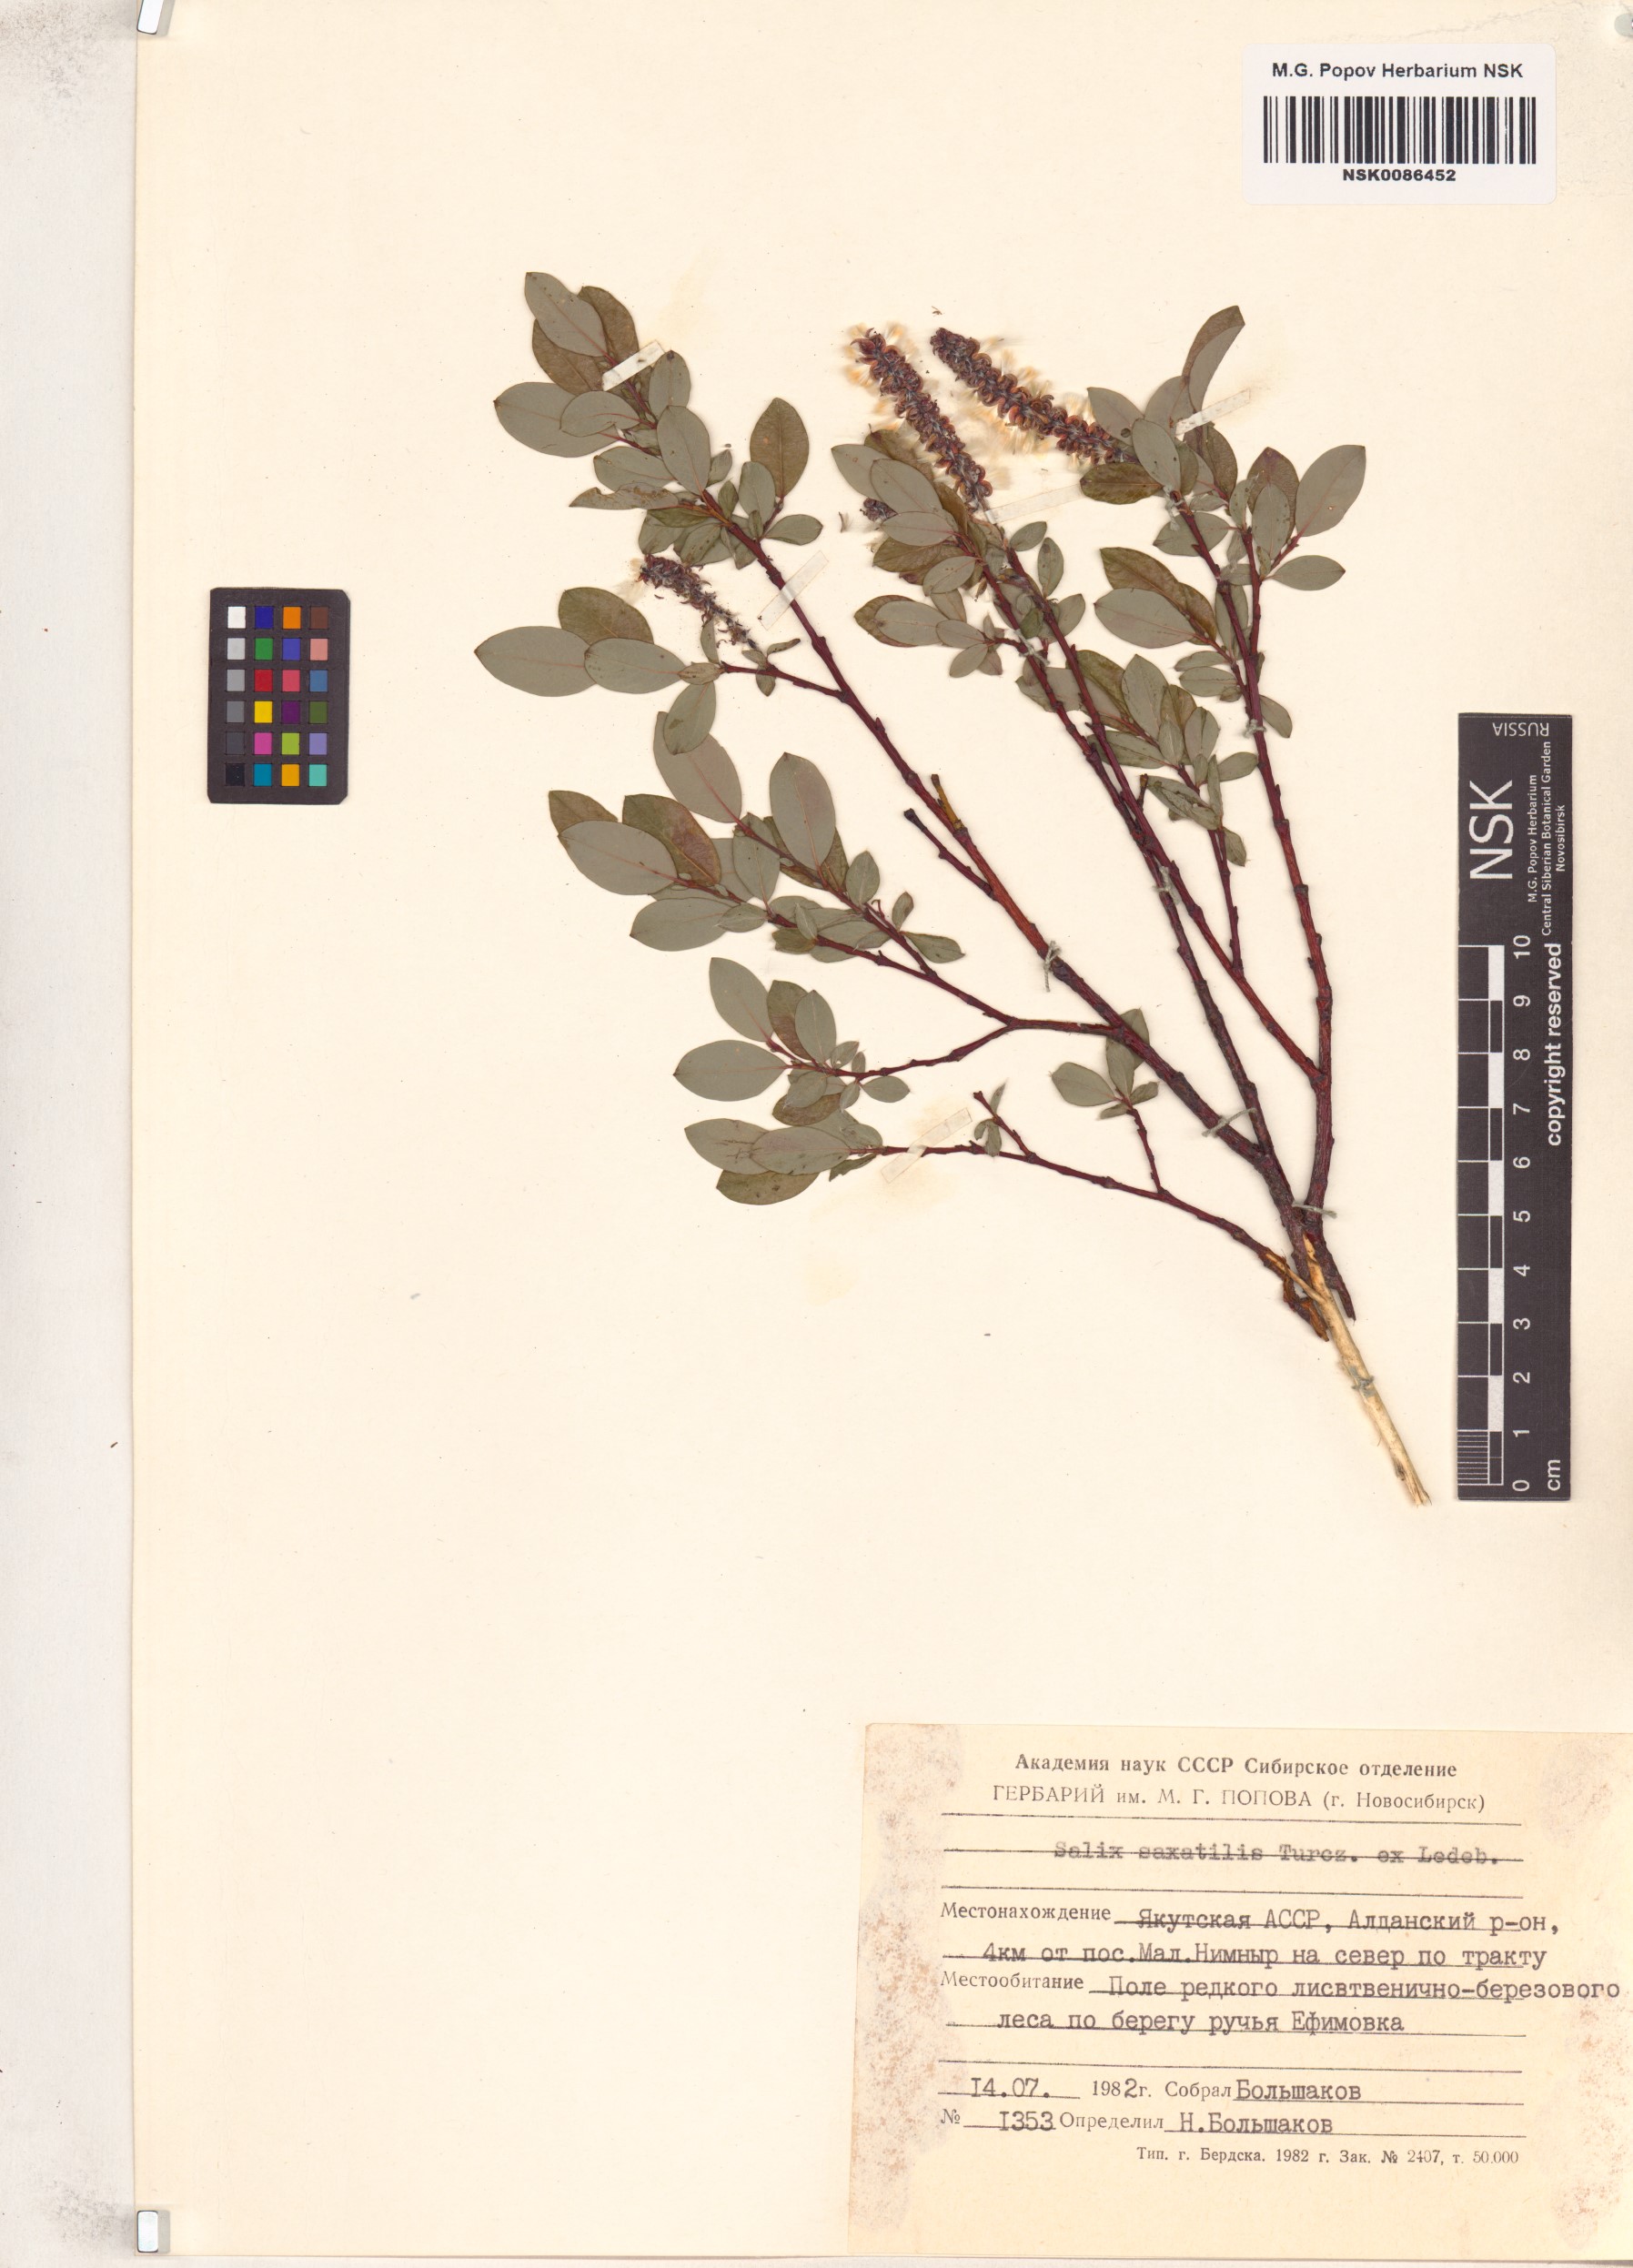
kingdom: Plantae
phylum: Tracheophyta
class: Magnoliopsida
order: Malpighiales
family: Salicaceae
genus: Salix
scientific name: Salix saxatilis
